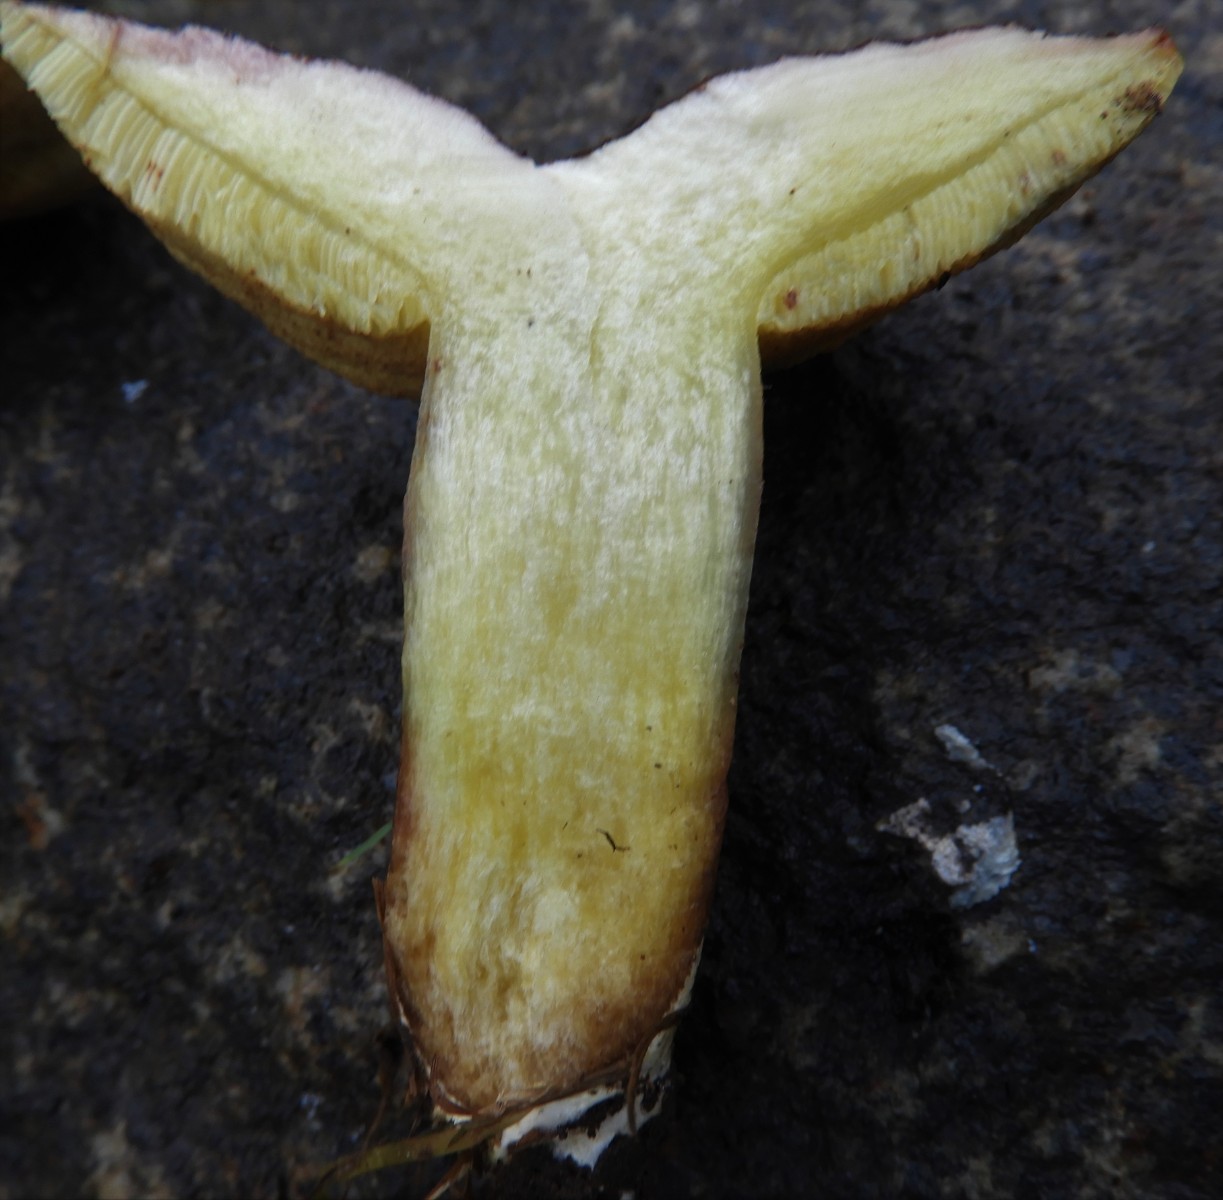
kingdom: Fungi
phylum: Basidiomycota
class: Agaricomycetes
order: Boletales
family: Boletaceae
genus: Xerocomellus
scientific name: Xerocomellus pruinatus
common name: dugget rørhat
